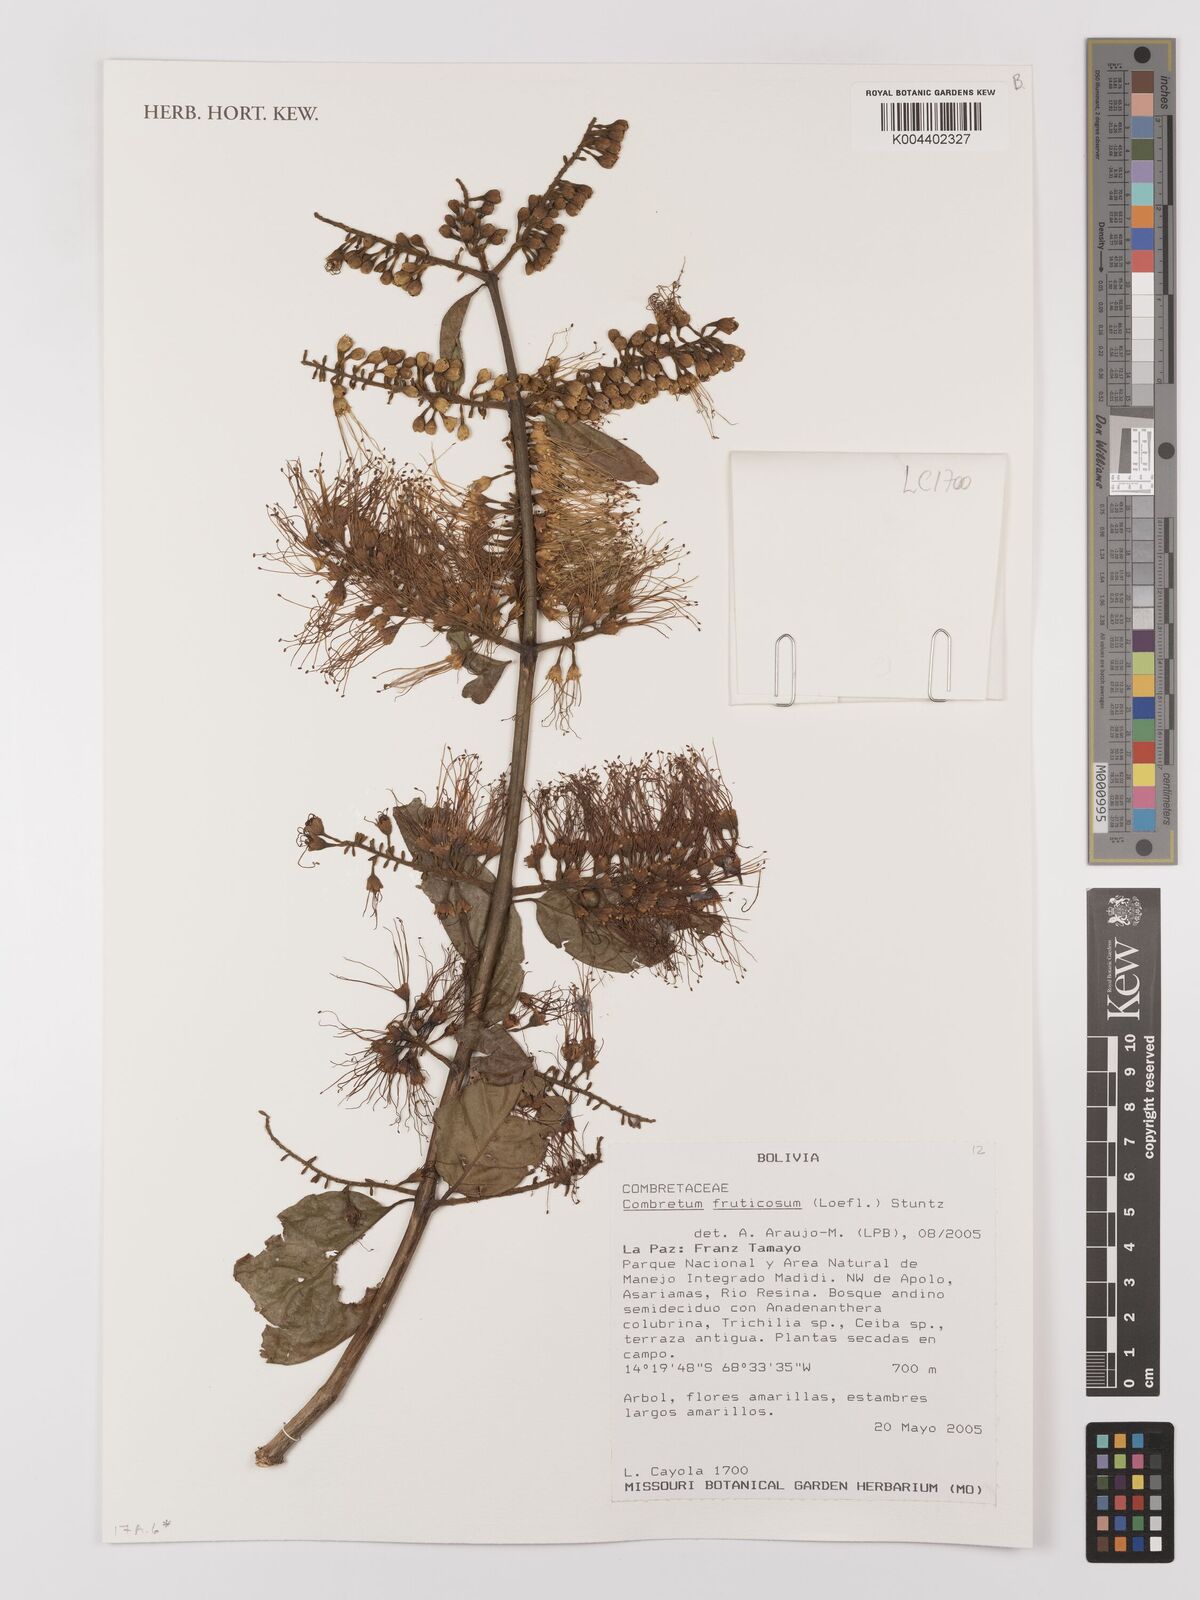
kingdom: Plantae
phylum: Tracheophyta
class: Magnoliopsida
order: Myrtales
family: Combretaceae
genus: Combretum
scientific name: Combretum fruticosum
